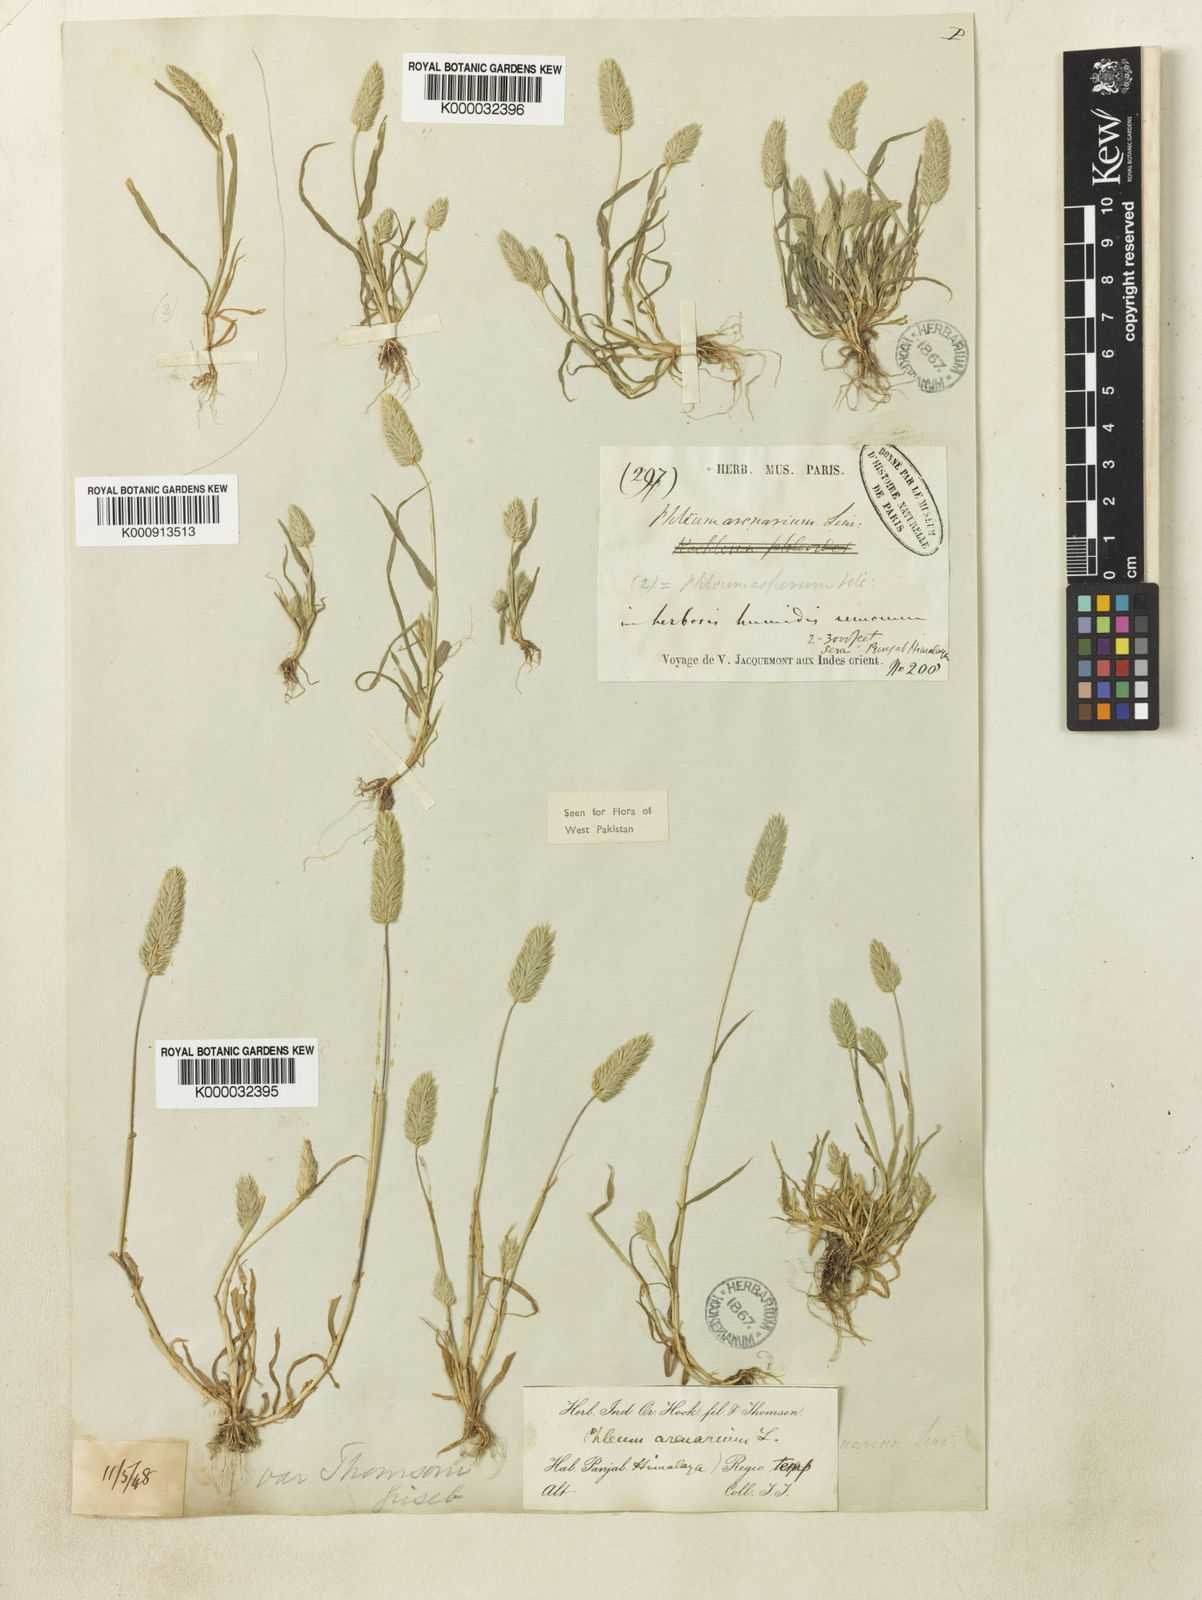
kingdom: Plantae
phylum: Tracheophyta
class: Liliopsida
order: Poales
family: Poaceae
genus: Phleum
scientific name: Phleum himalaicum
